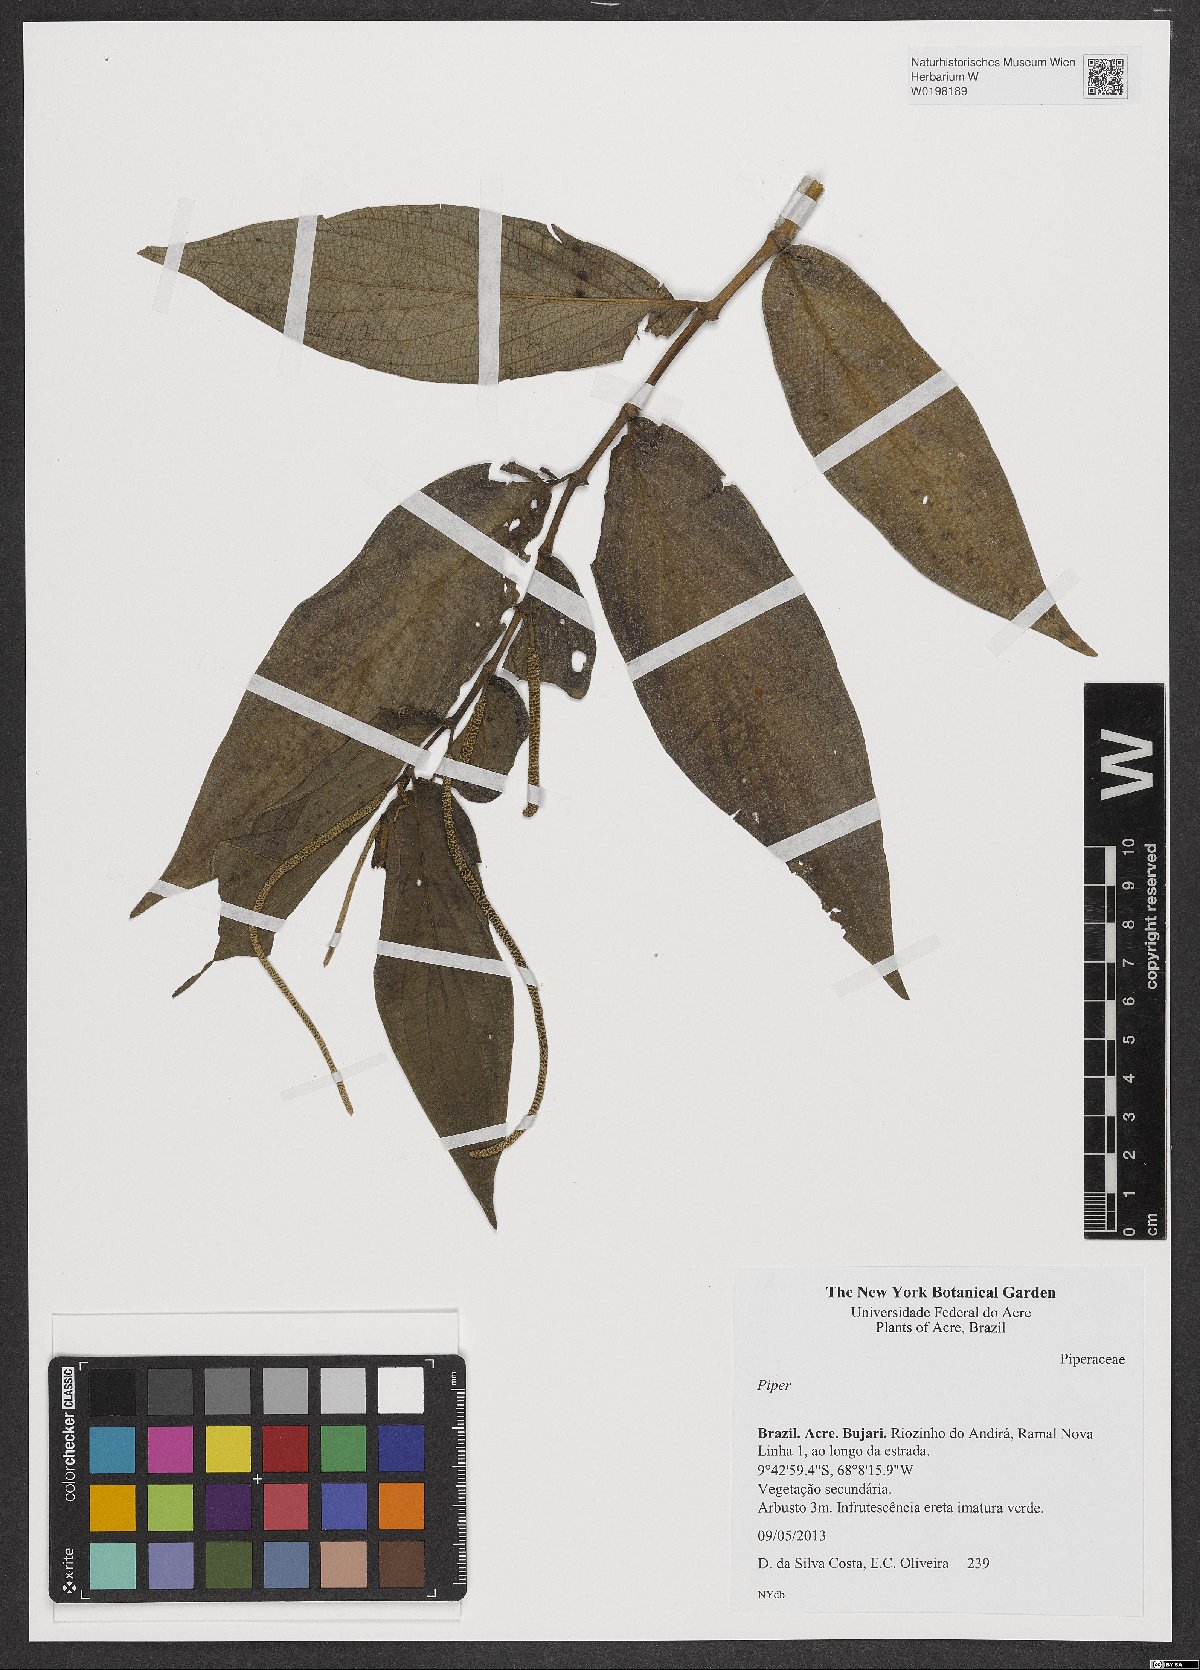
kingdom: Plantae
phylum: Tracheophyta
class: Magnoliopsida
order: Piperales
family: Piperaceae
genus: Piper
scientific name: Piper
